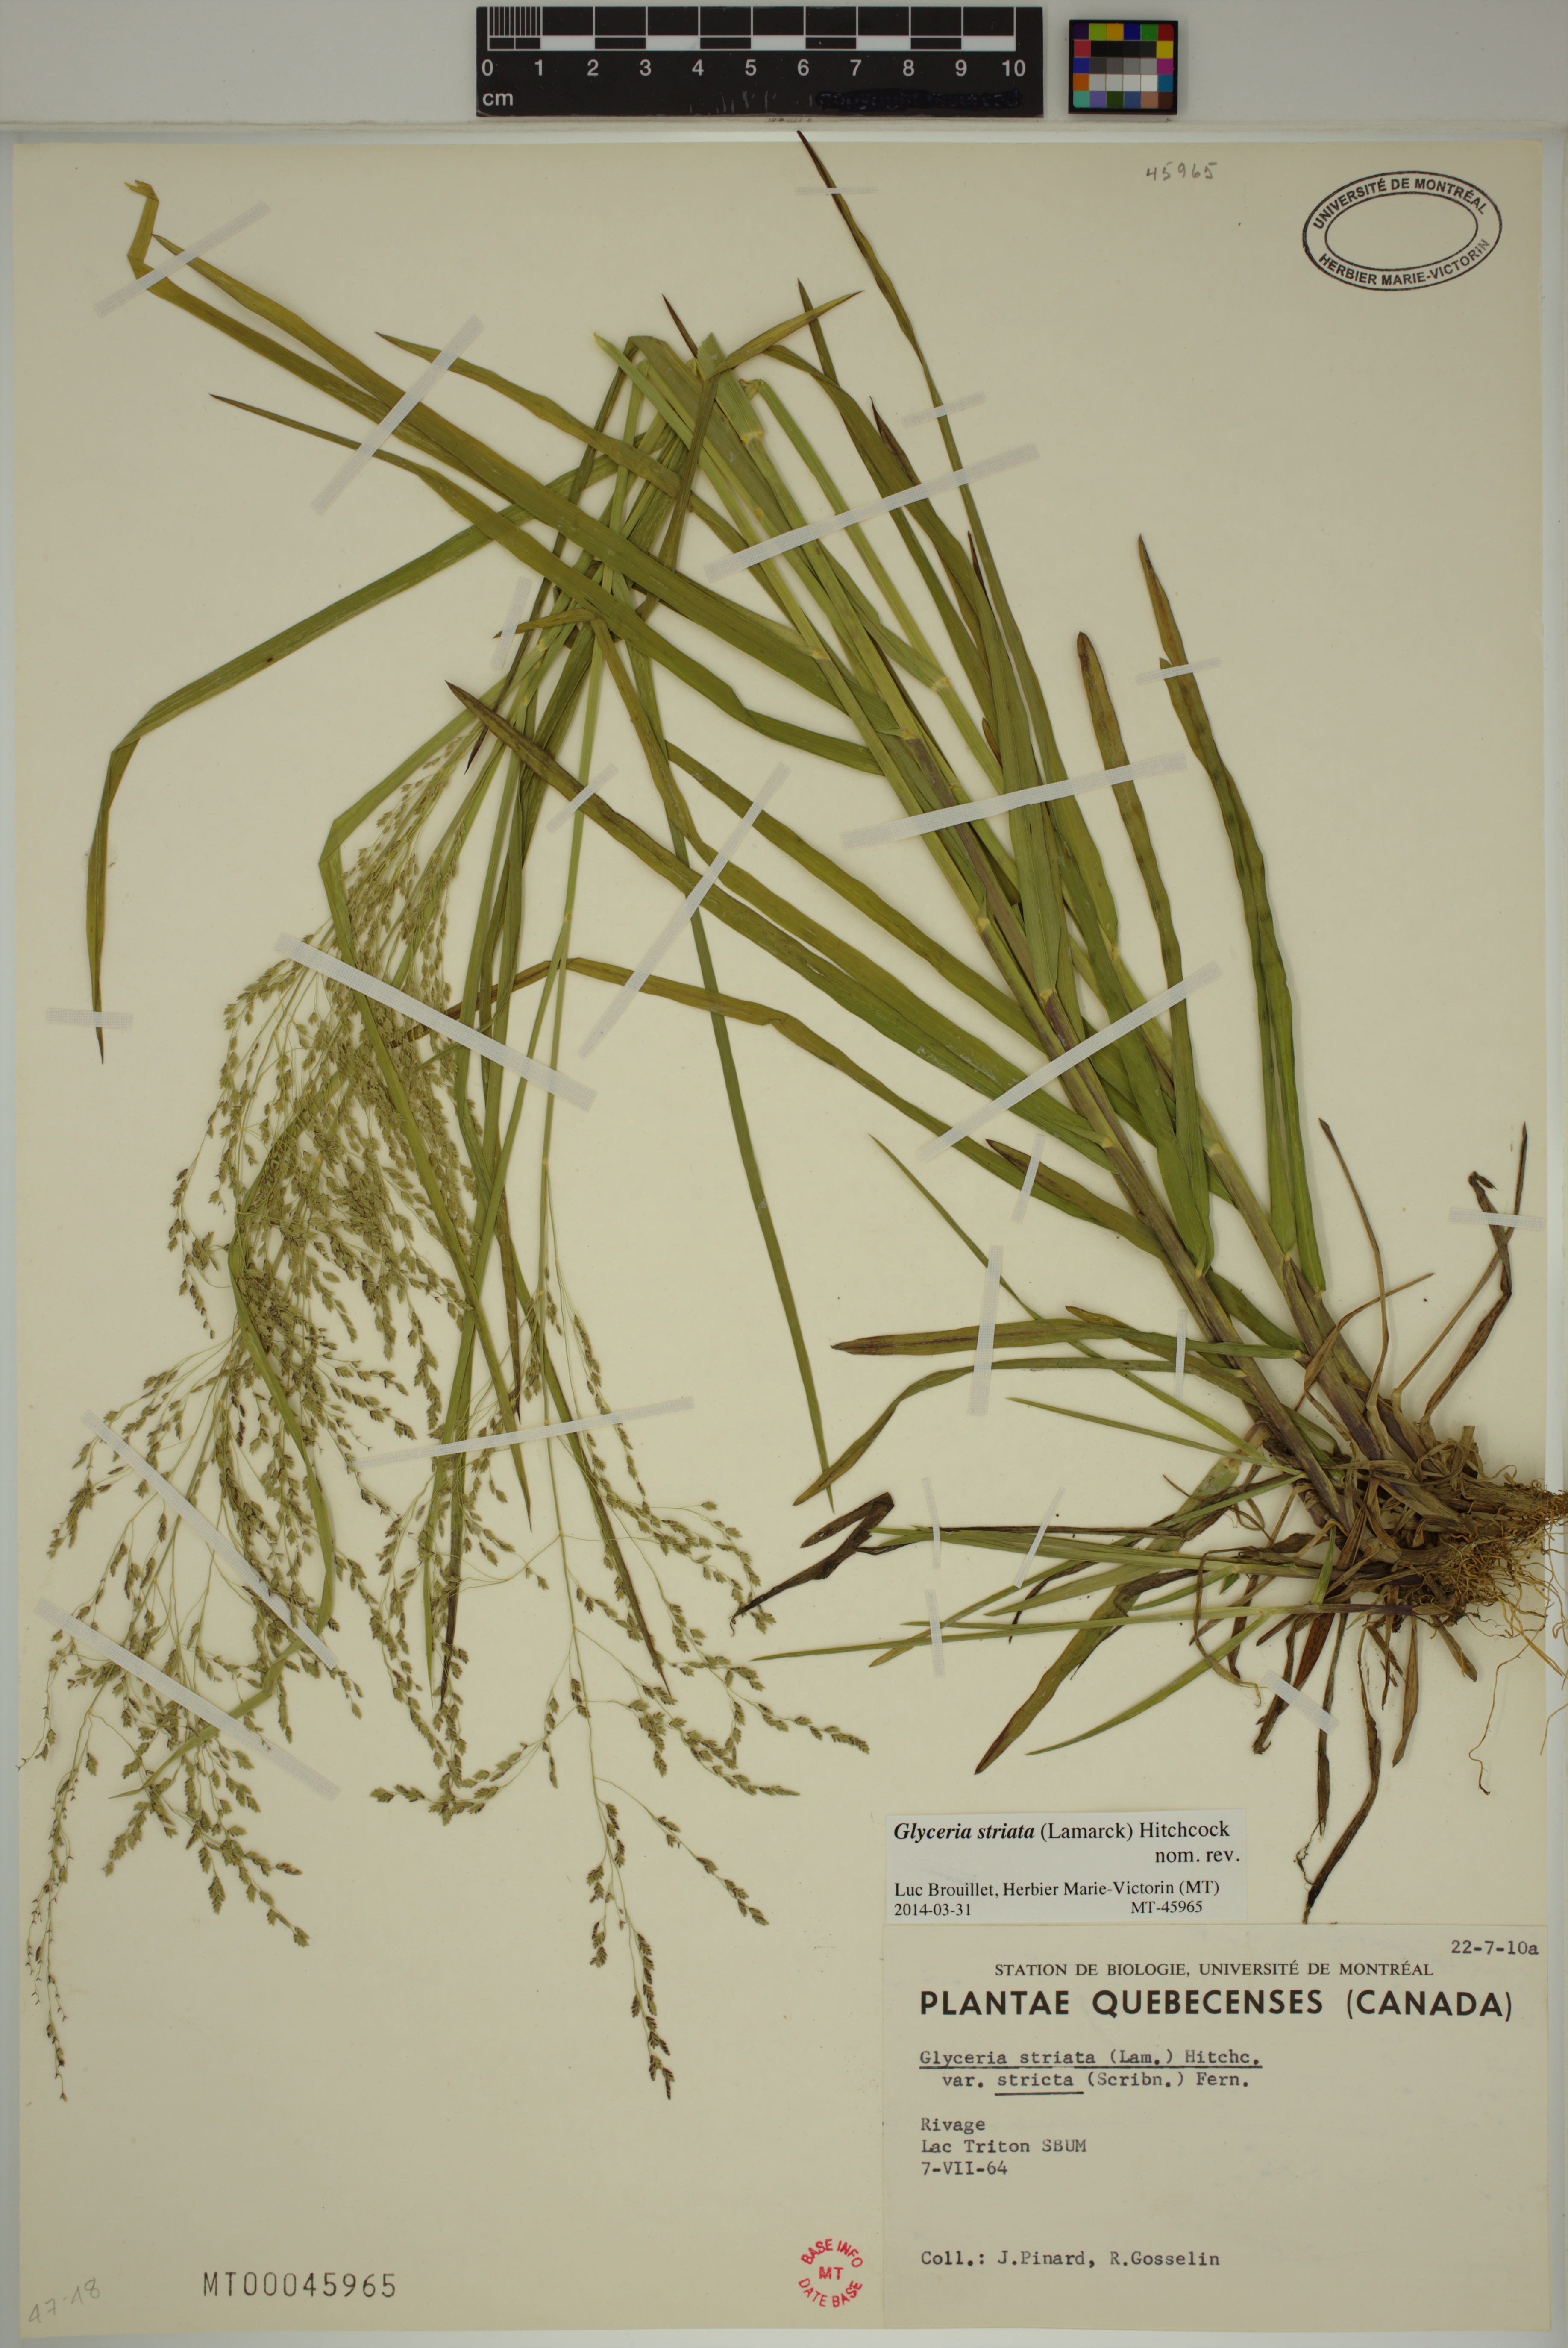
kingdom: Plantae
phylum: Tracheophyta
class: Liliopsida
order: Poales
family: Poaceae
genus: Glyceria
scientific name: Glyceria striata
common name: Fowl manna grass
